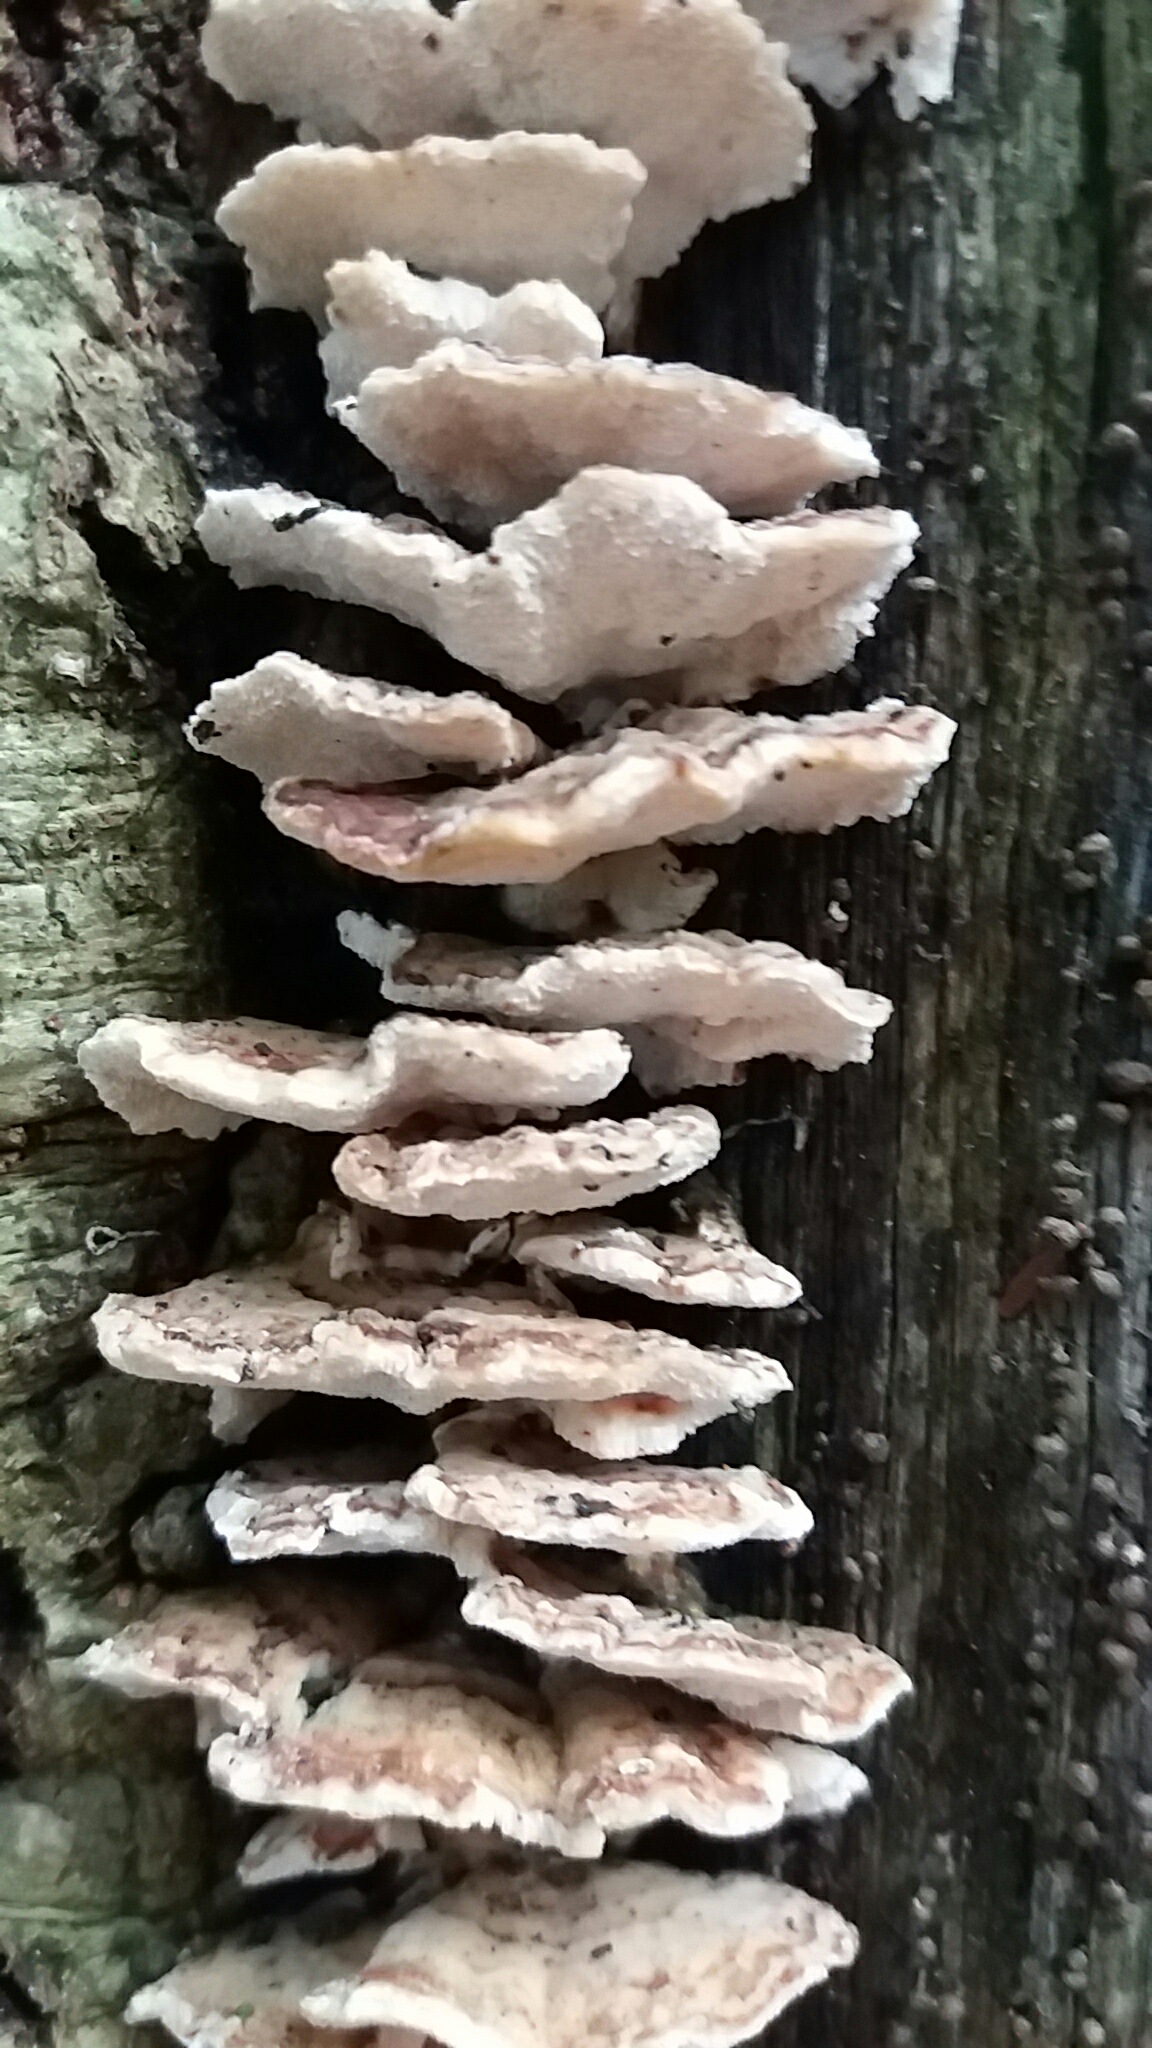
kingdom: Fungi
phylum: Basidiomycota
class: Agaricomycetes
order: Polyporales
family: Polyporaceae
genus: Trametes
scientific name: Trametes versicolor
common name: broget læderporesvamp
